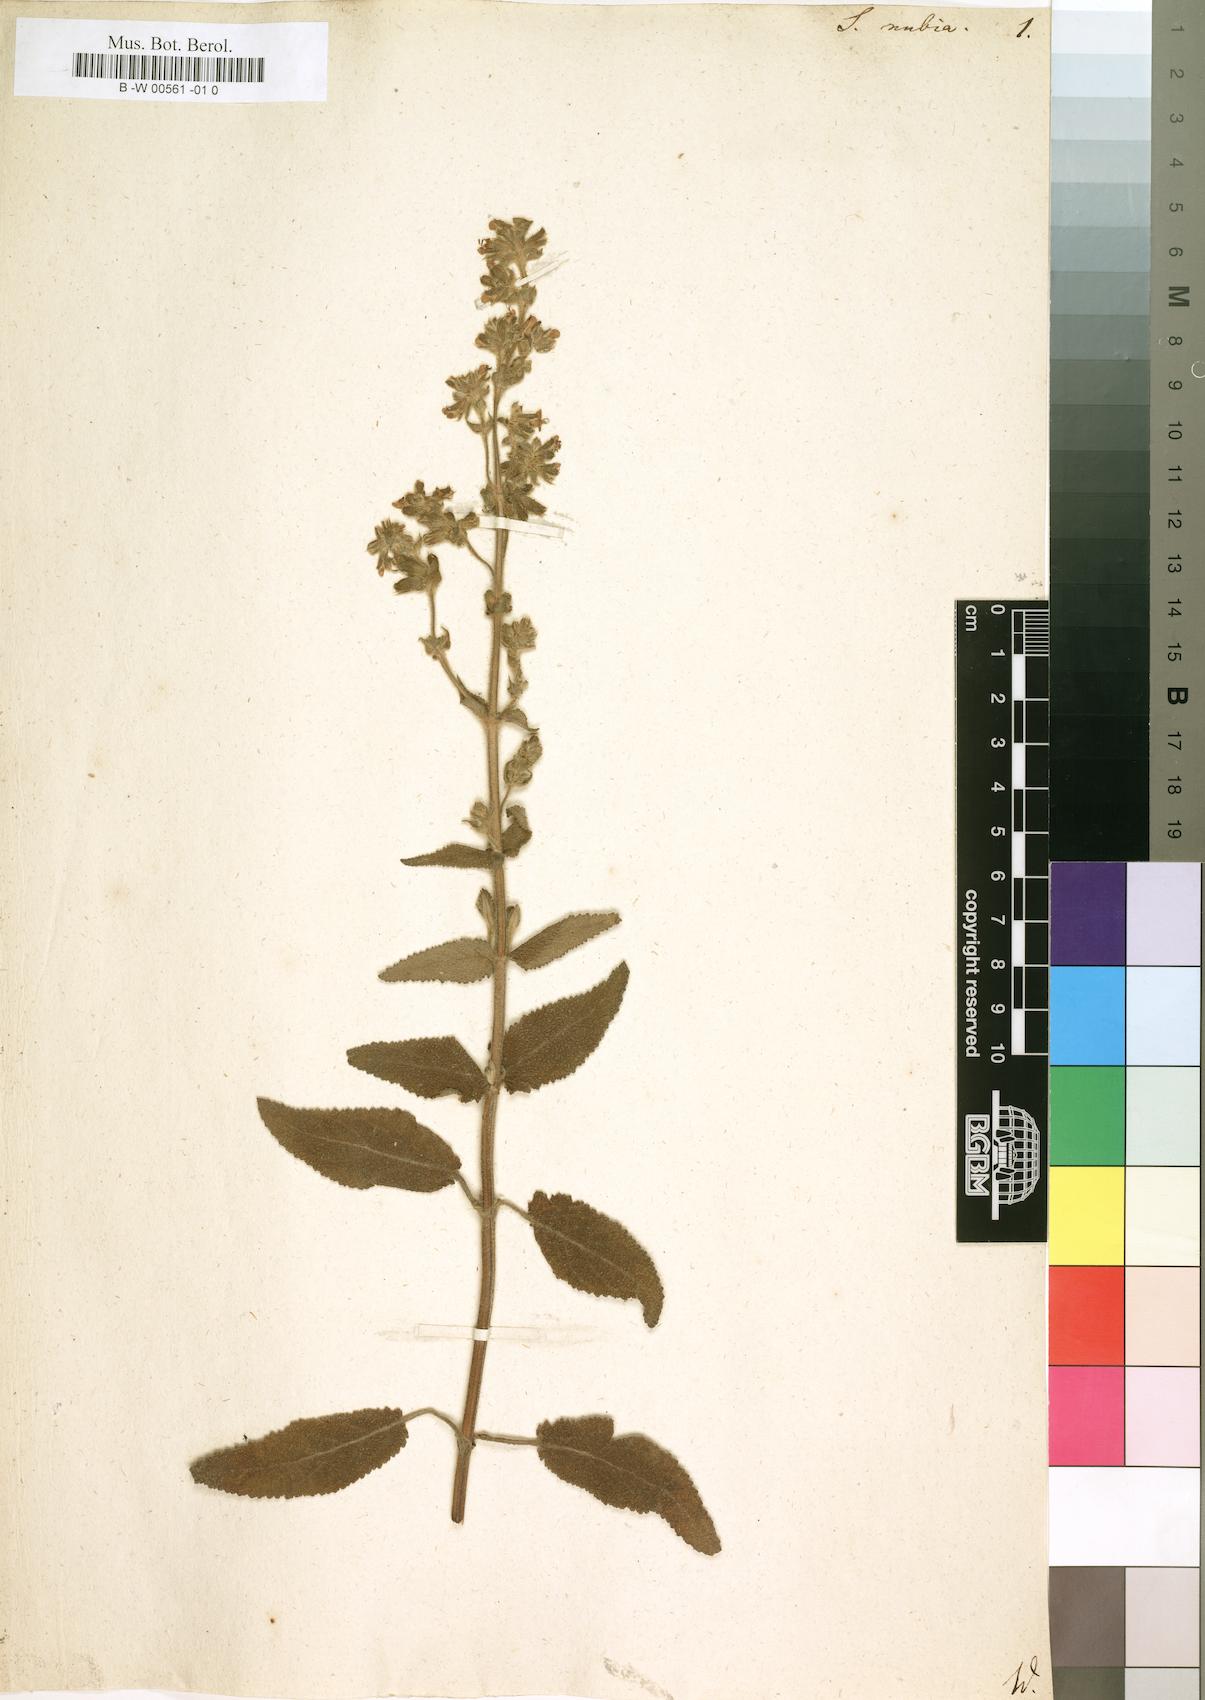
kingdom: Plantae
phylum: Tracheophyta
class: Magnoliopsida
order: Lamiales
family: Lamiaceae
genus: Salvia
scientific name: Salvia nubia
